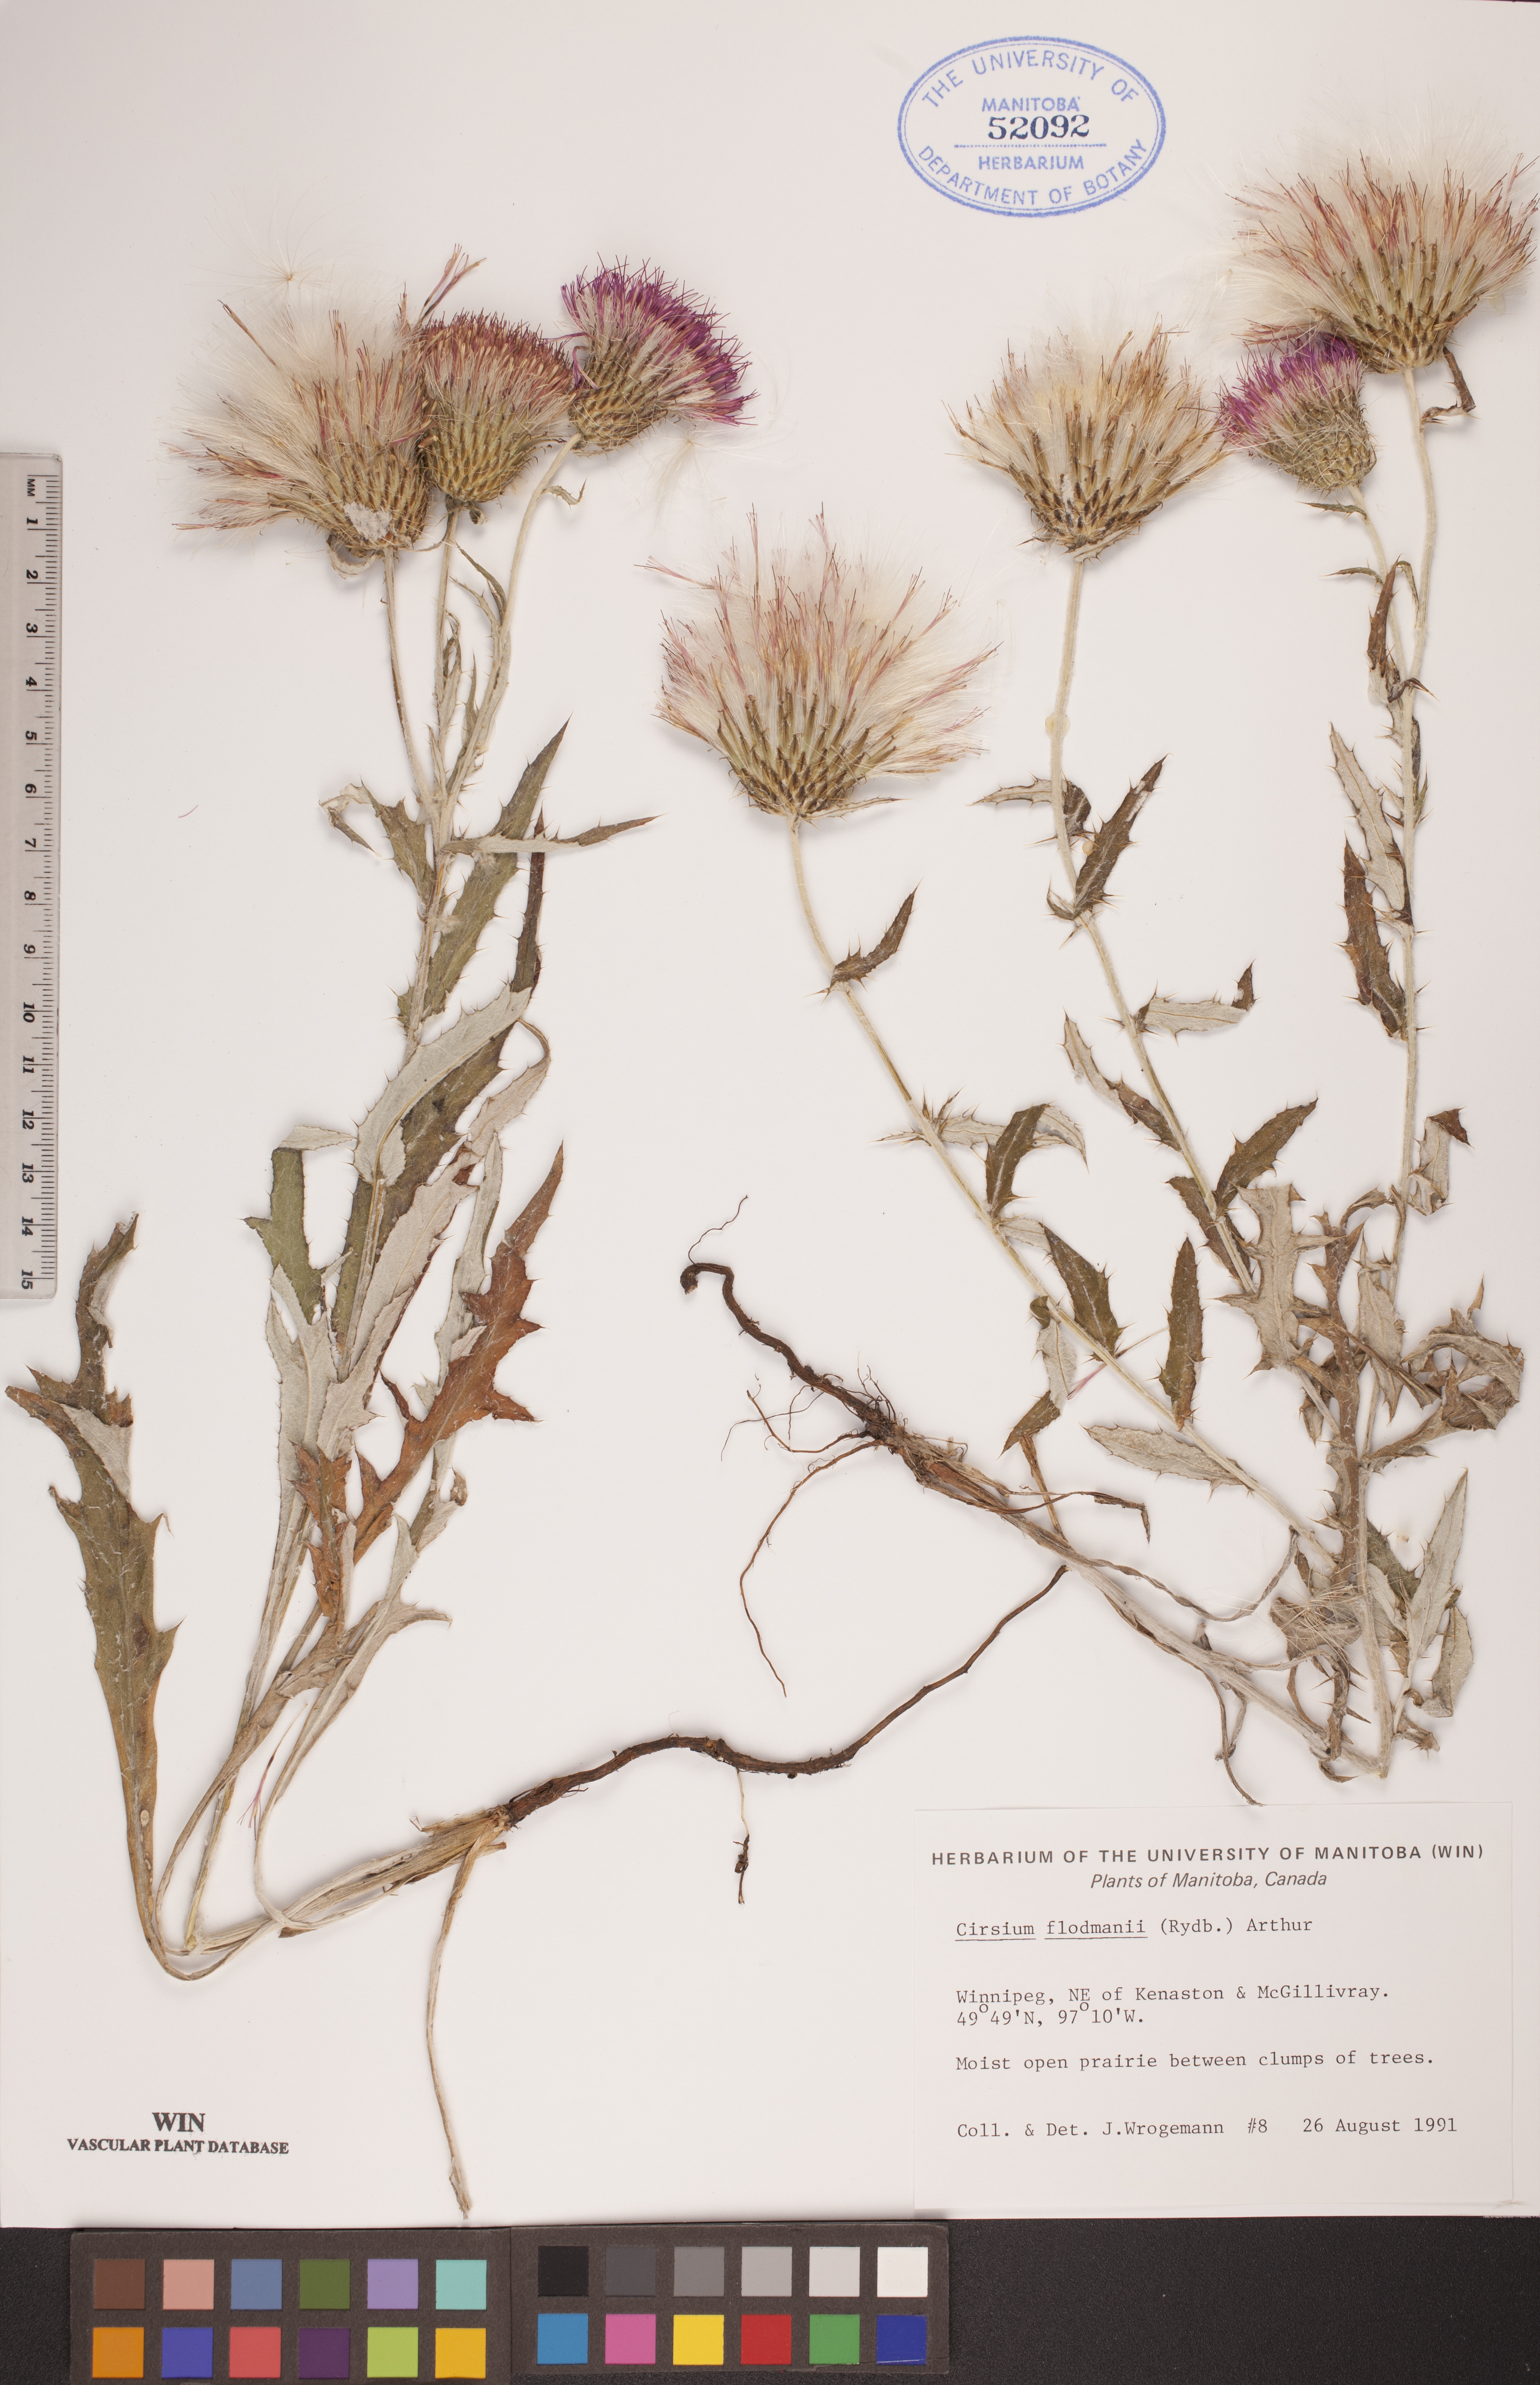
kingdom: Plantae
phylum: Tracheophyta
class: Magnoliopsida
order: Asterales
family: Asteraceae
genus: Cirsium
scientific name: Cirsium flodmanii
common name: Flodman's thistle
